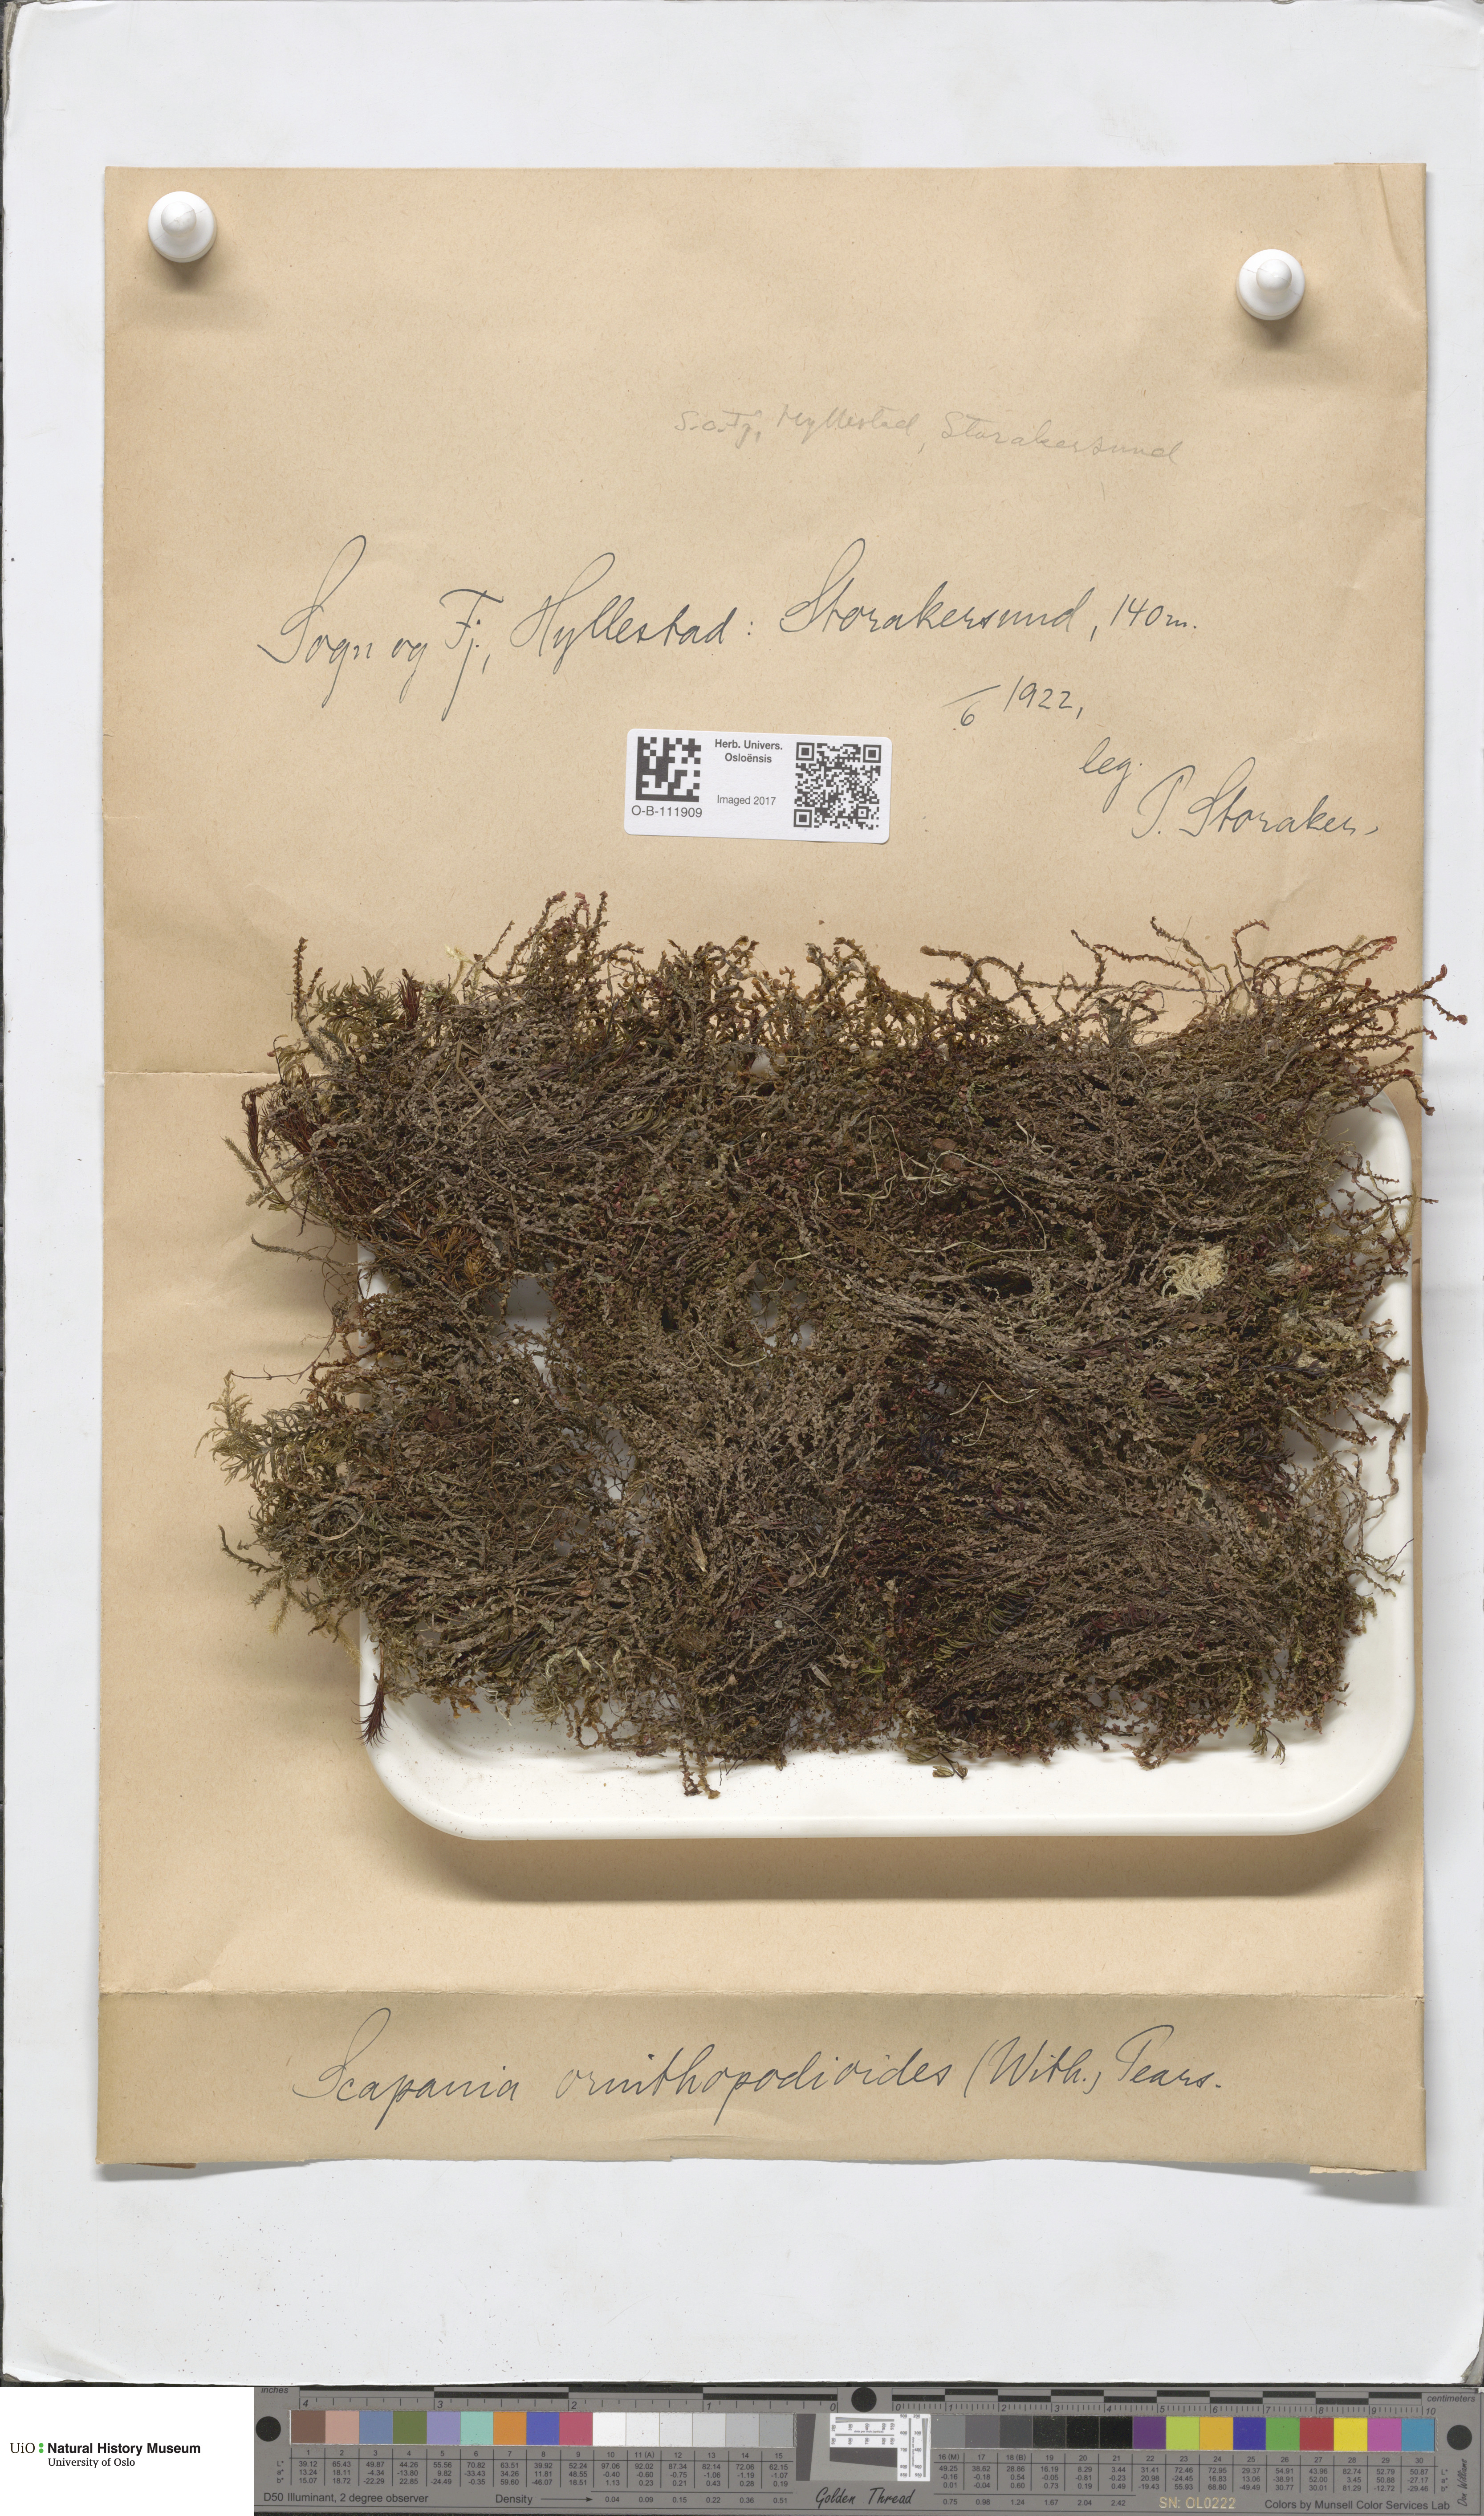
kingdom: Plantae
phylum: Marchantiophyta
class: Jungermanniopsida
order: Jungermanniales
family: Scapaniaceae
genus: Scapania
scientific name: Scapania ornithopodioides
